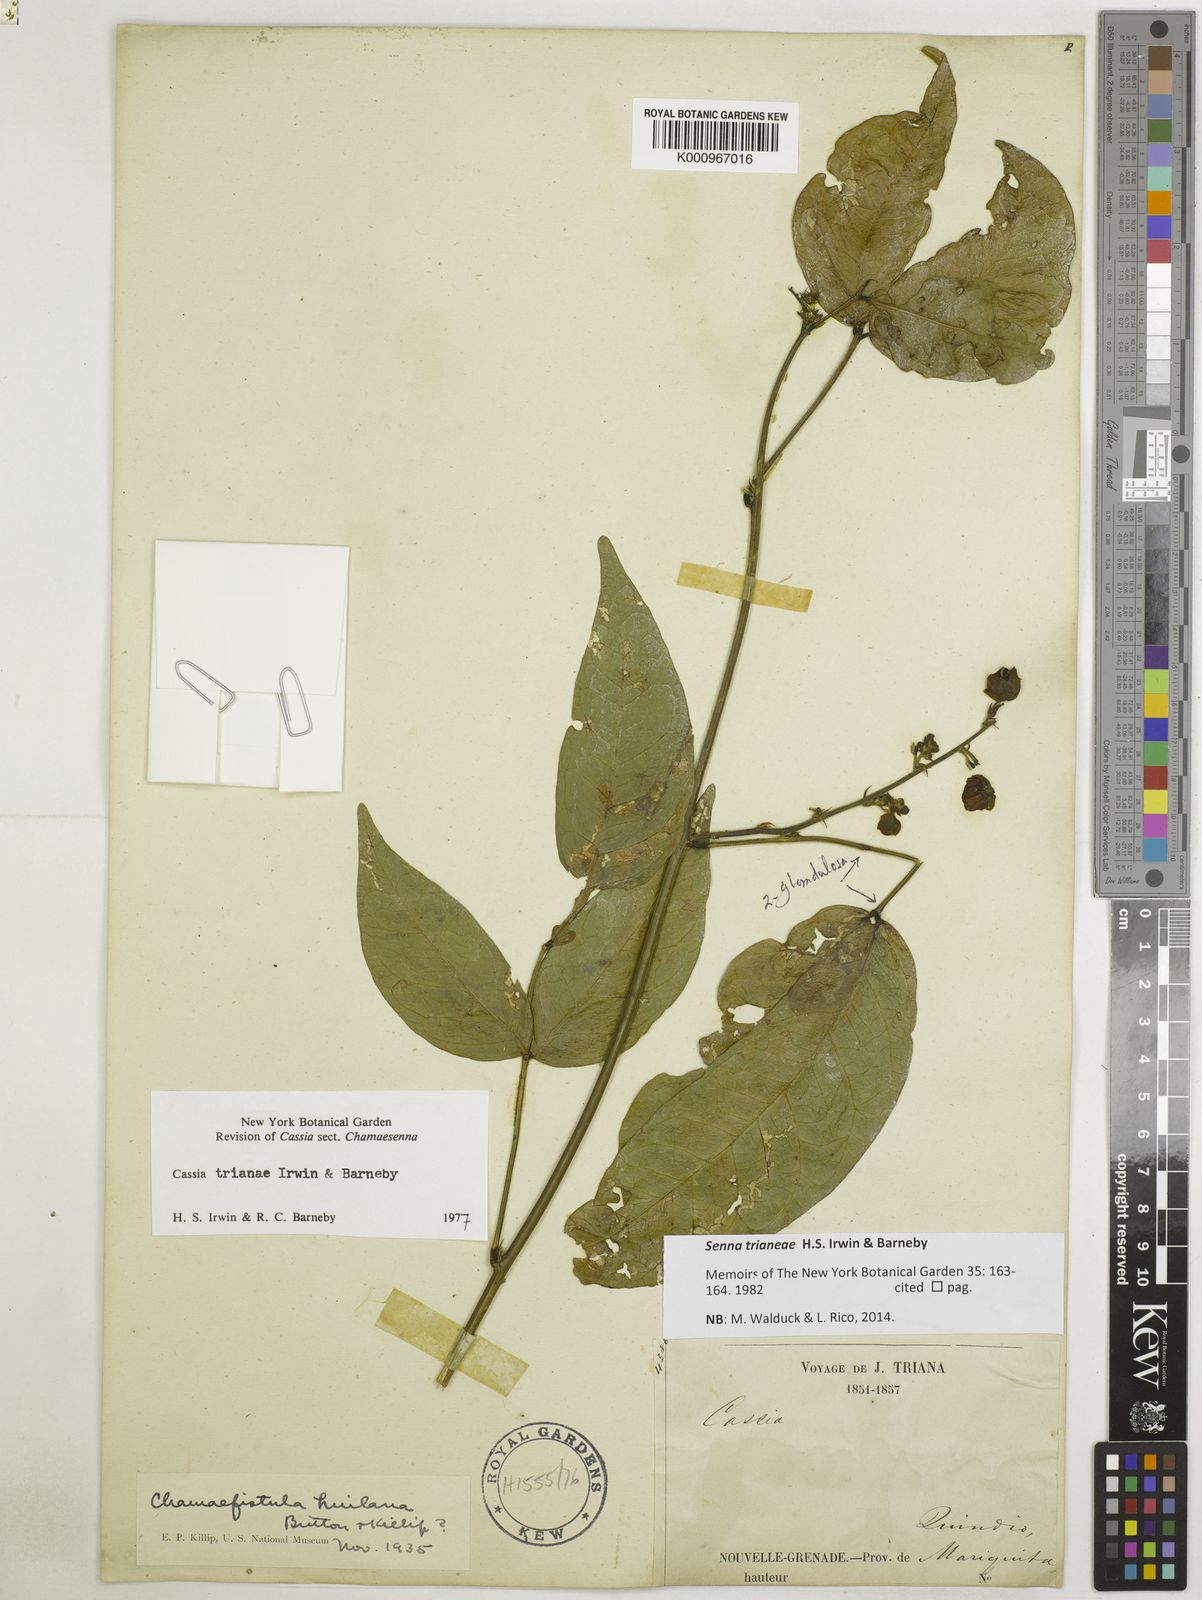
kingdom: Plantae
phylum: Tracheophyta
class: Magnoliopsida
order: Fabales
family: Fabaceae
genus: Senna
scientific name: Senna
